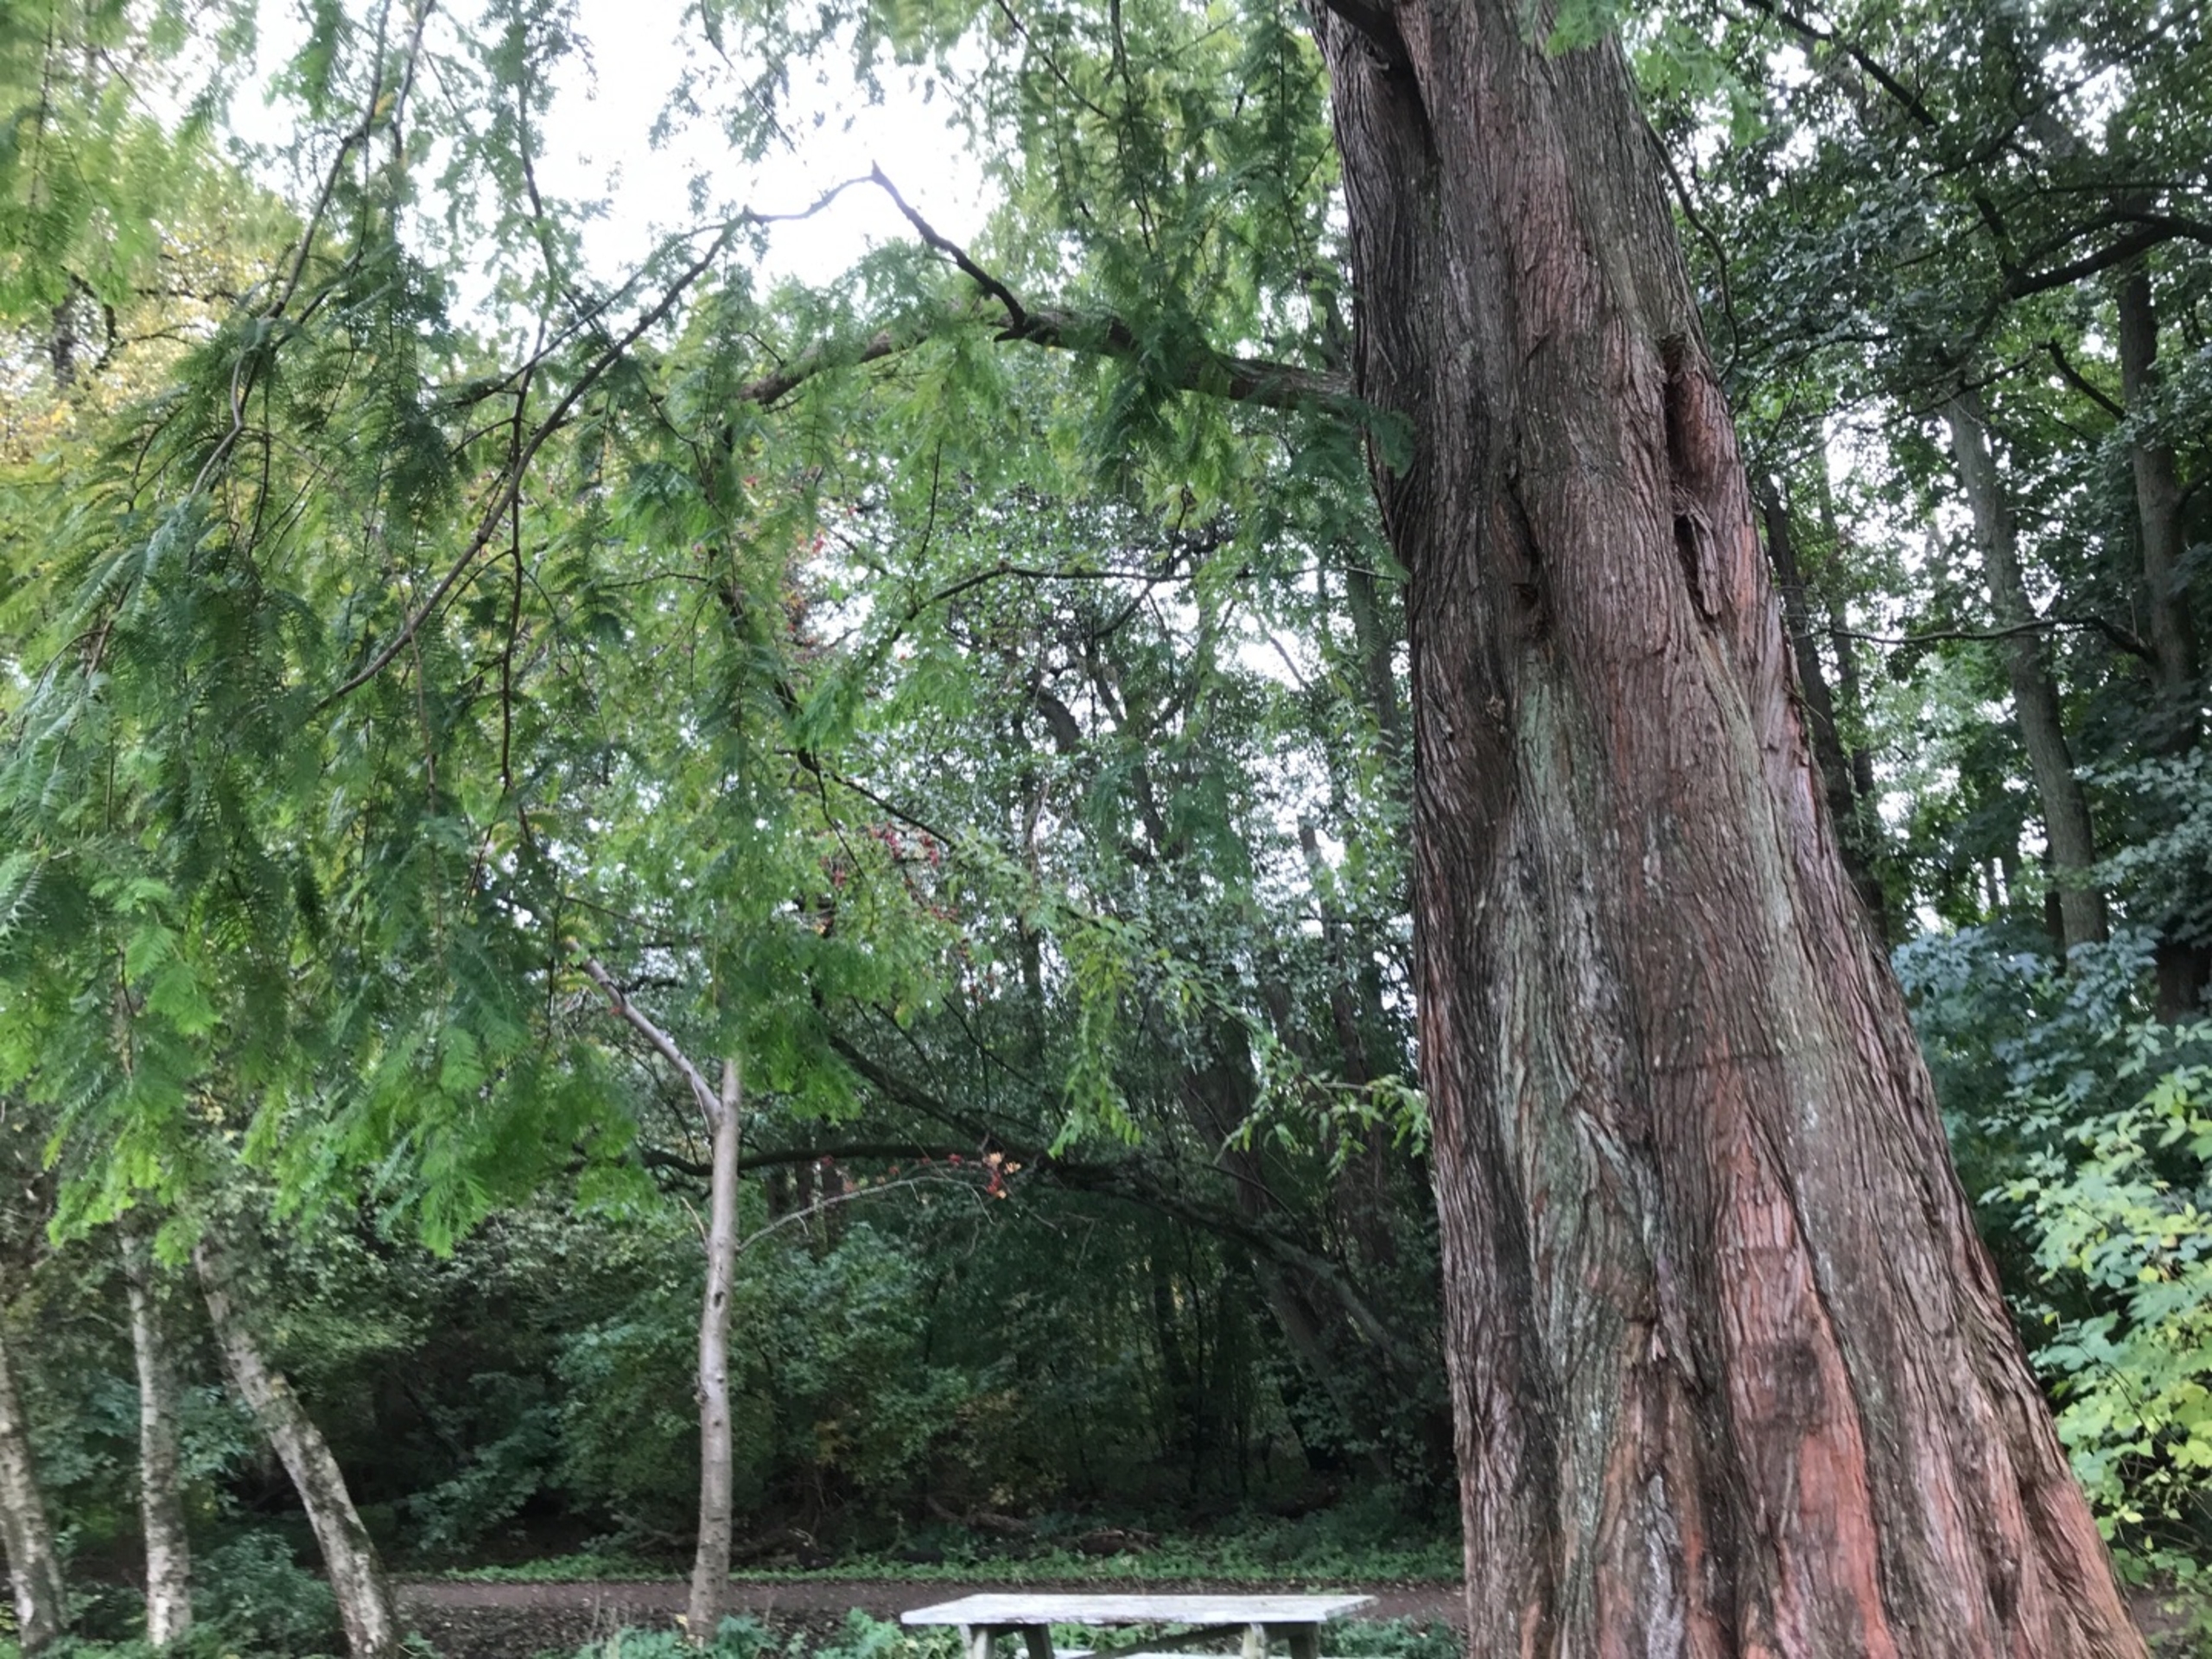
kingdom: Plantae
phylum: Tracheophyta
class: Pinopsida
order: Pinales
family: Cupressaceae
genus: Metasequoia
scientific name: Metasequoia glyptostroboides
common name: Vandgran
